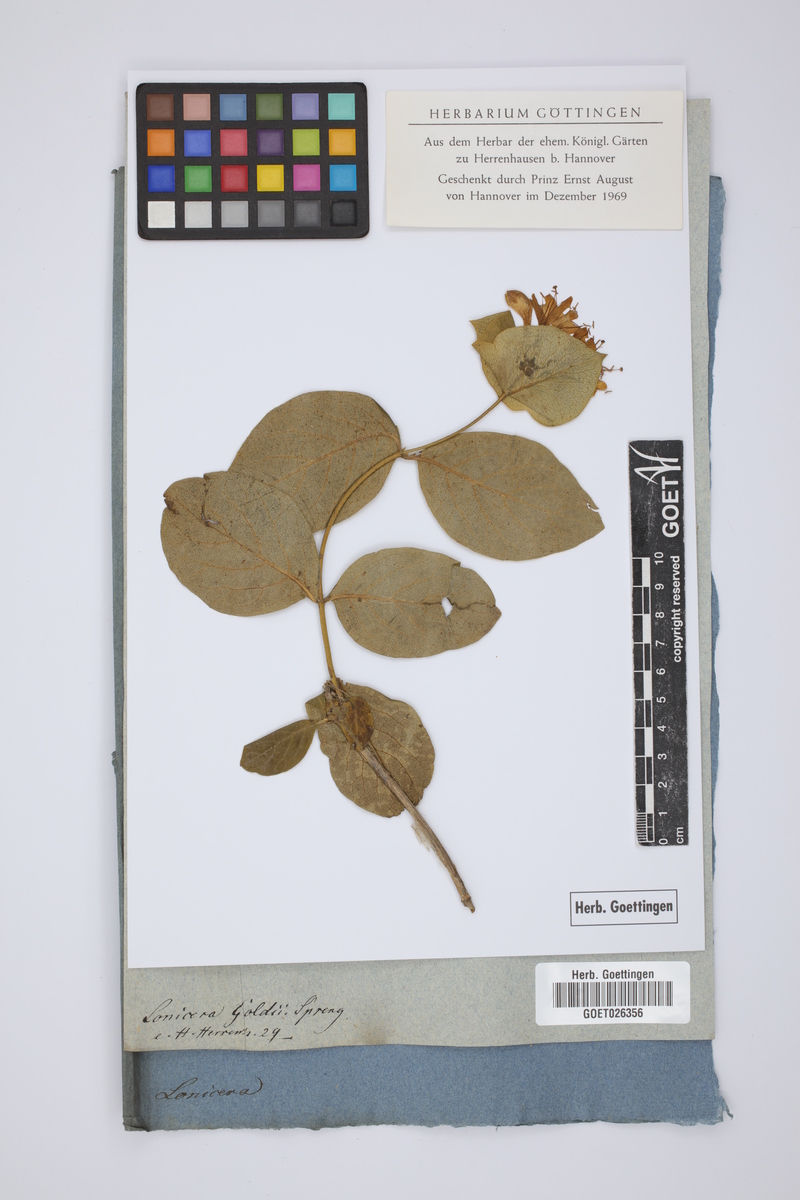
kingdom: Plantae
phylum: Tracheophyta
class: Magnoliopsida
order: Dipsacales
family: Caprifoliaceae
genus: Lonicera
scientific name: Lonicera hirsuta
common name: Hairy honeysuckle
